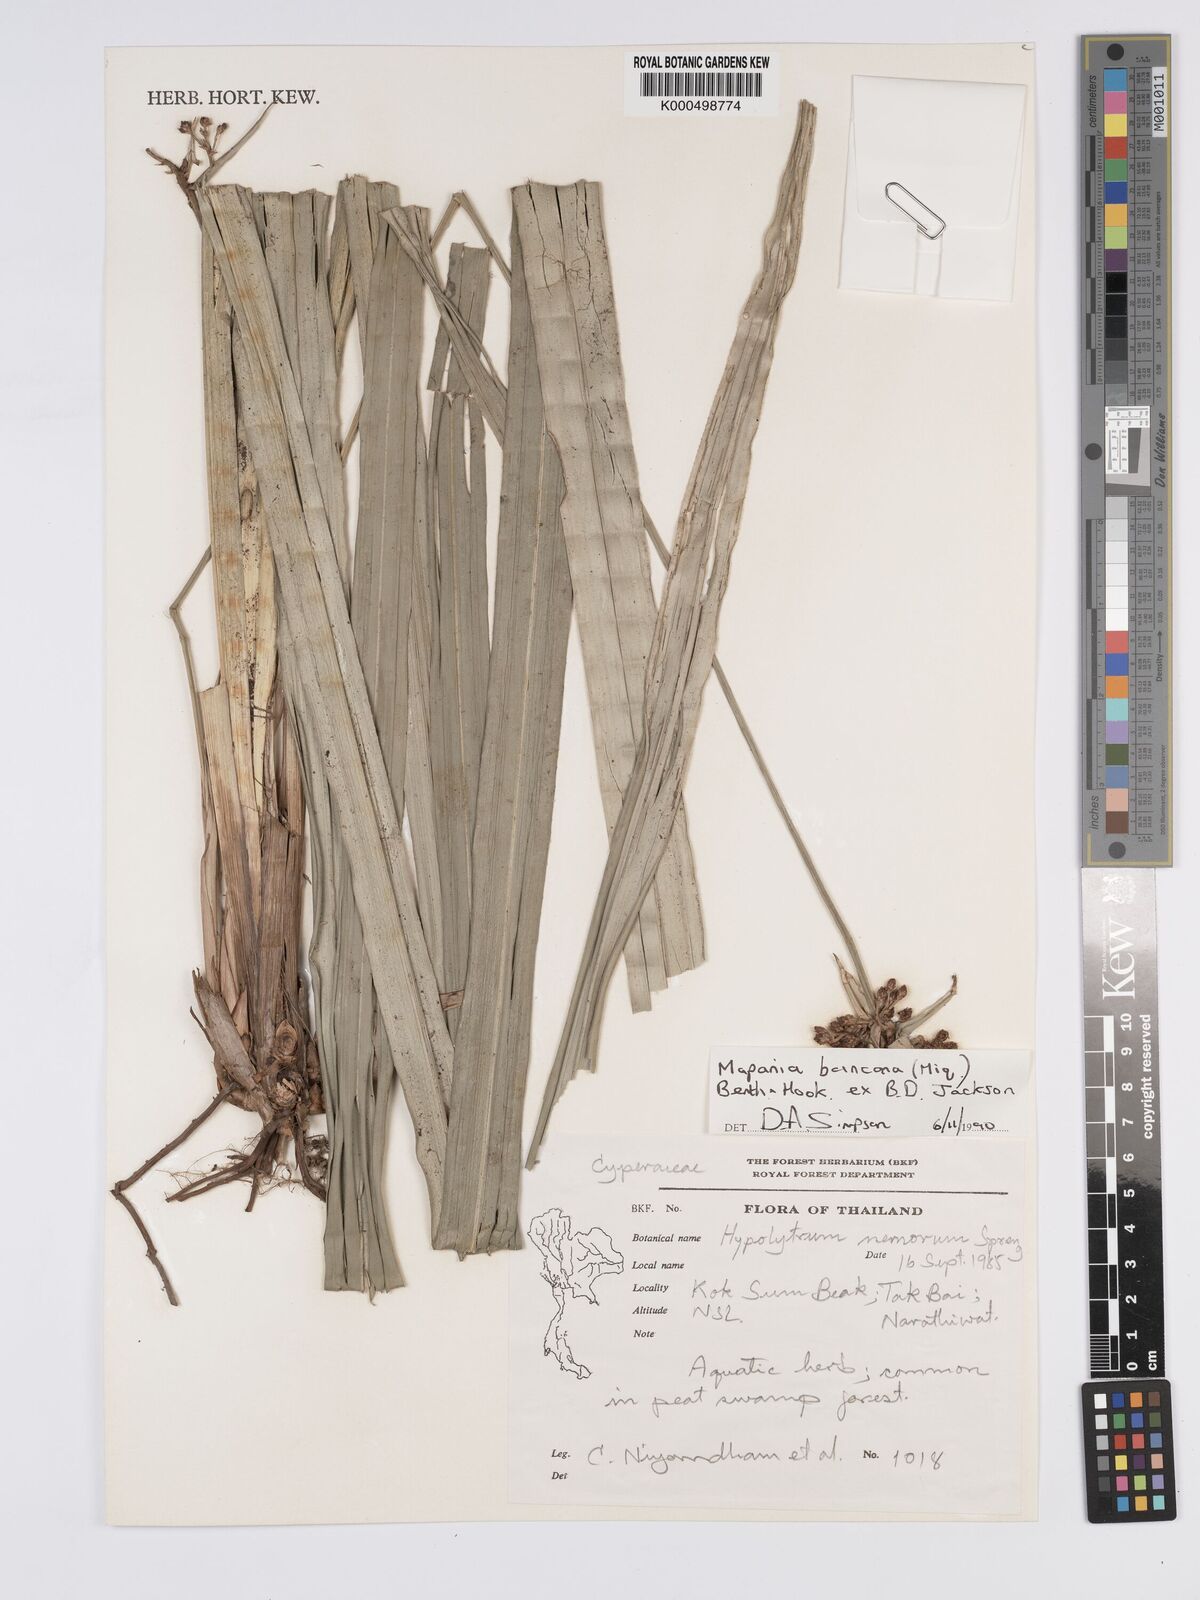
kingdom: Plantae
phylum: Tracheophyta
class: Liliopsida
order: Poales
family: Cyperaceae
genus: Mapania
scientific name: Mapania
